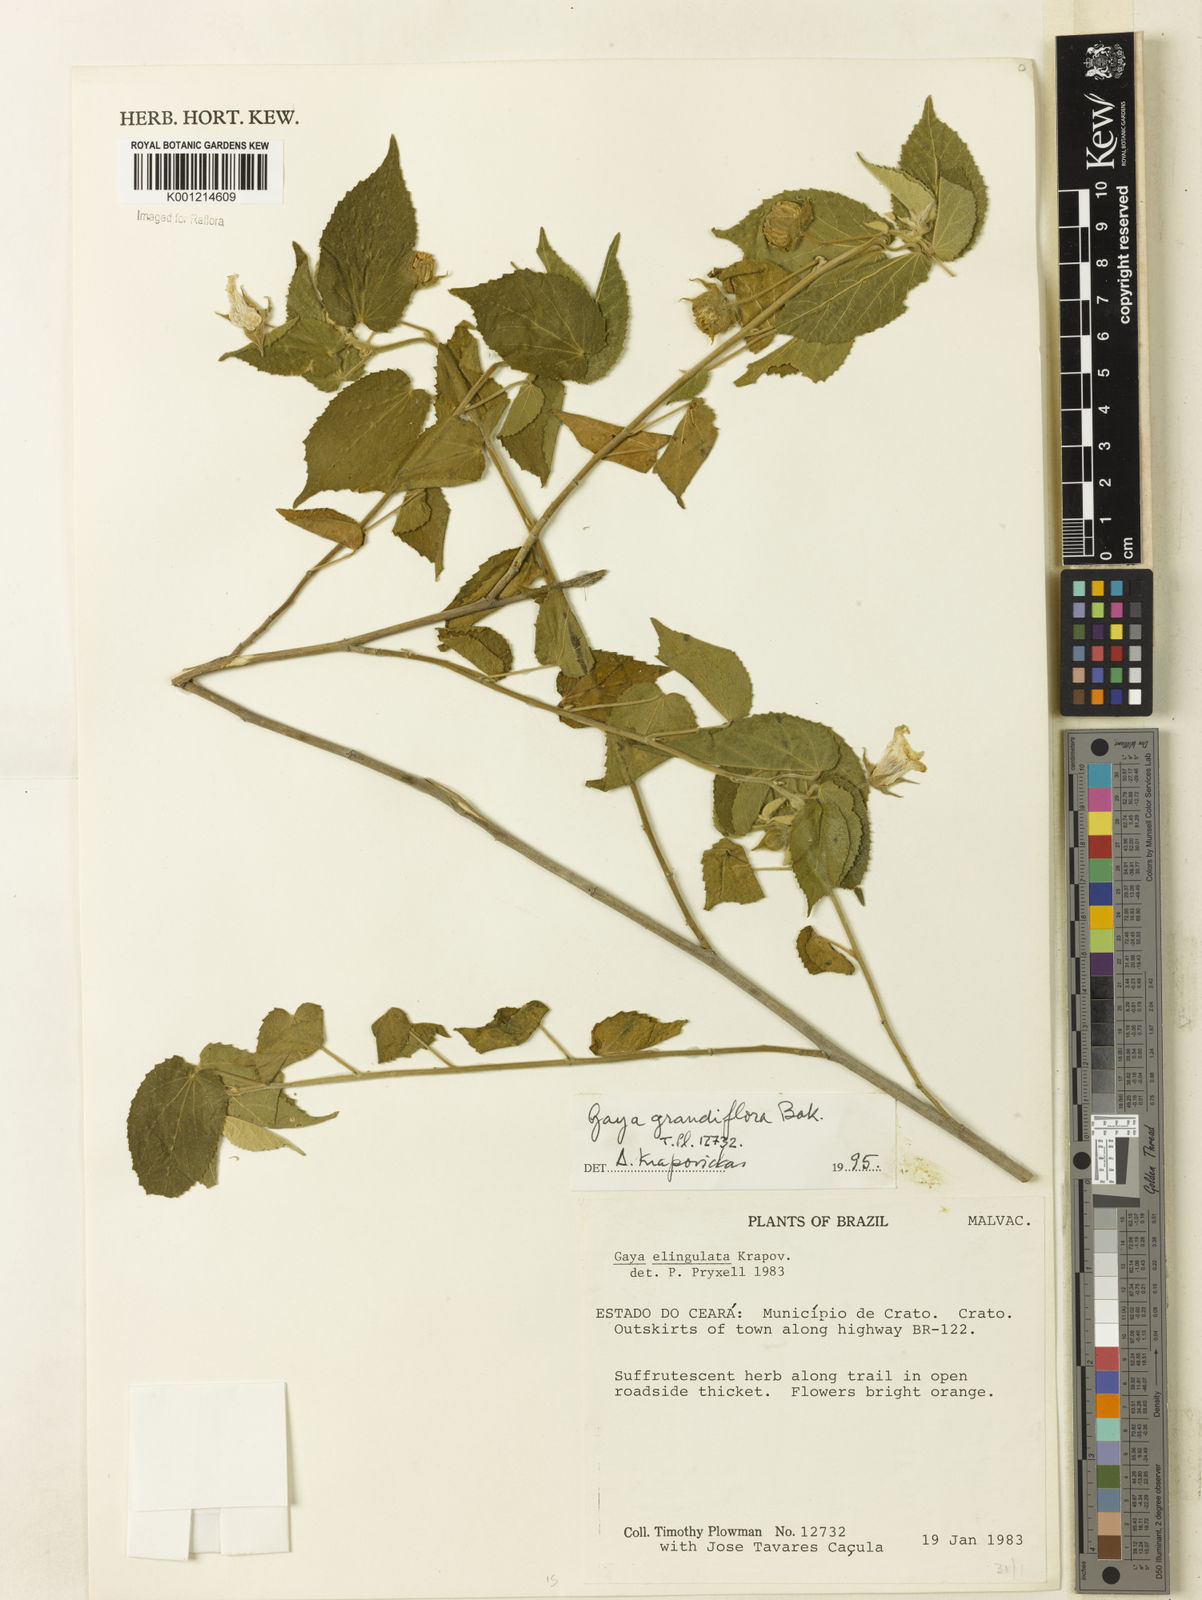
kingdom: Plantae
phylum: Tracheophyta
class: Magnoliopsida
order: Malvales
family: Malvaceae
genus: Gaya
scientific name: Gaya grandiflora
